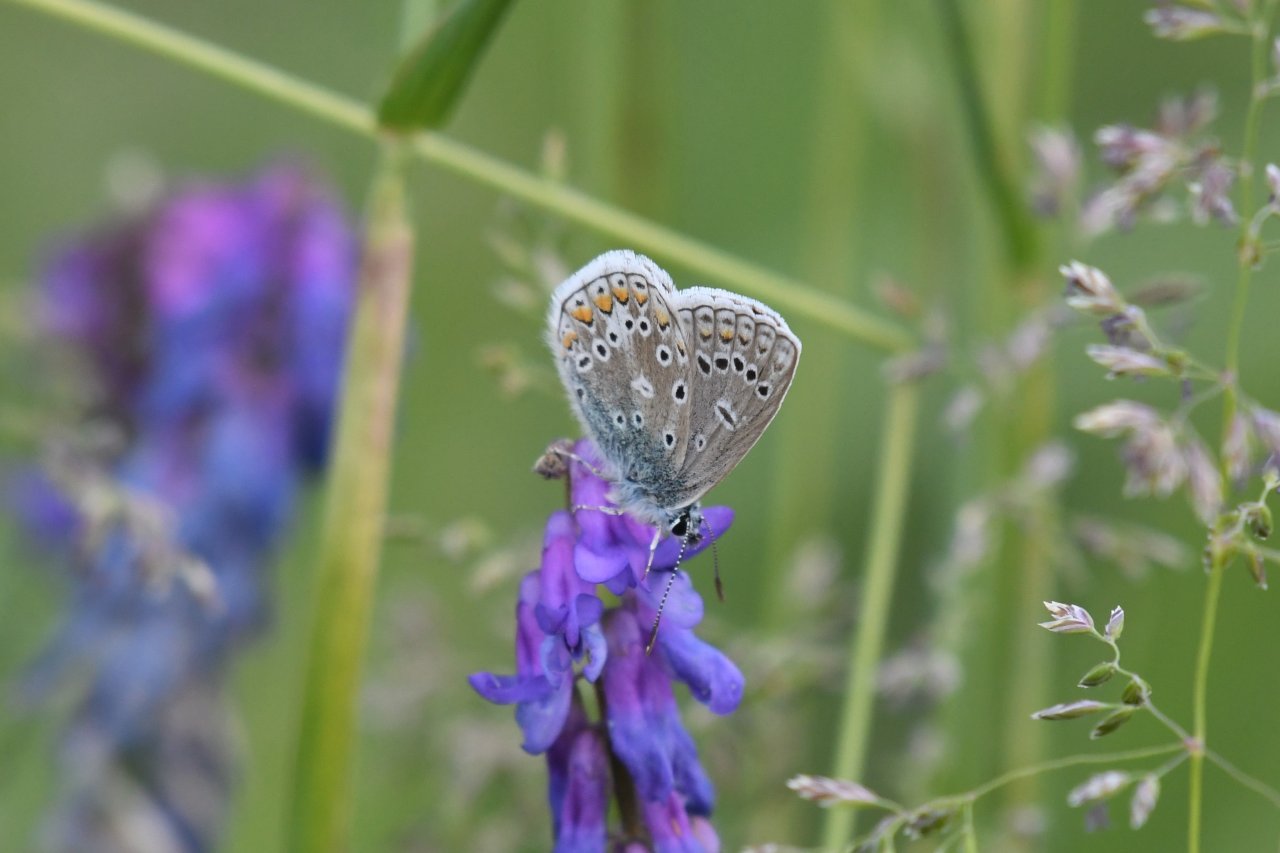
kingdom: Animalia
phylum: Arthropoda
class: Insecta
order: Lepidoptera
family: Lycaenidae
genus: Polyommatus
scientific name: Polyommatus icarus
